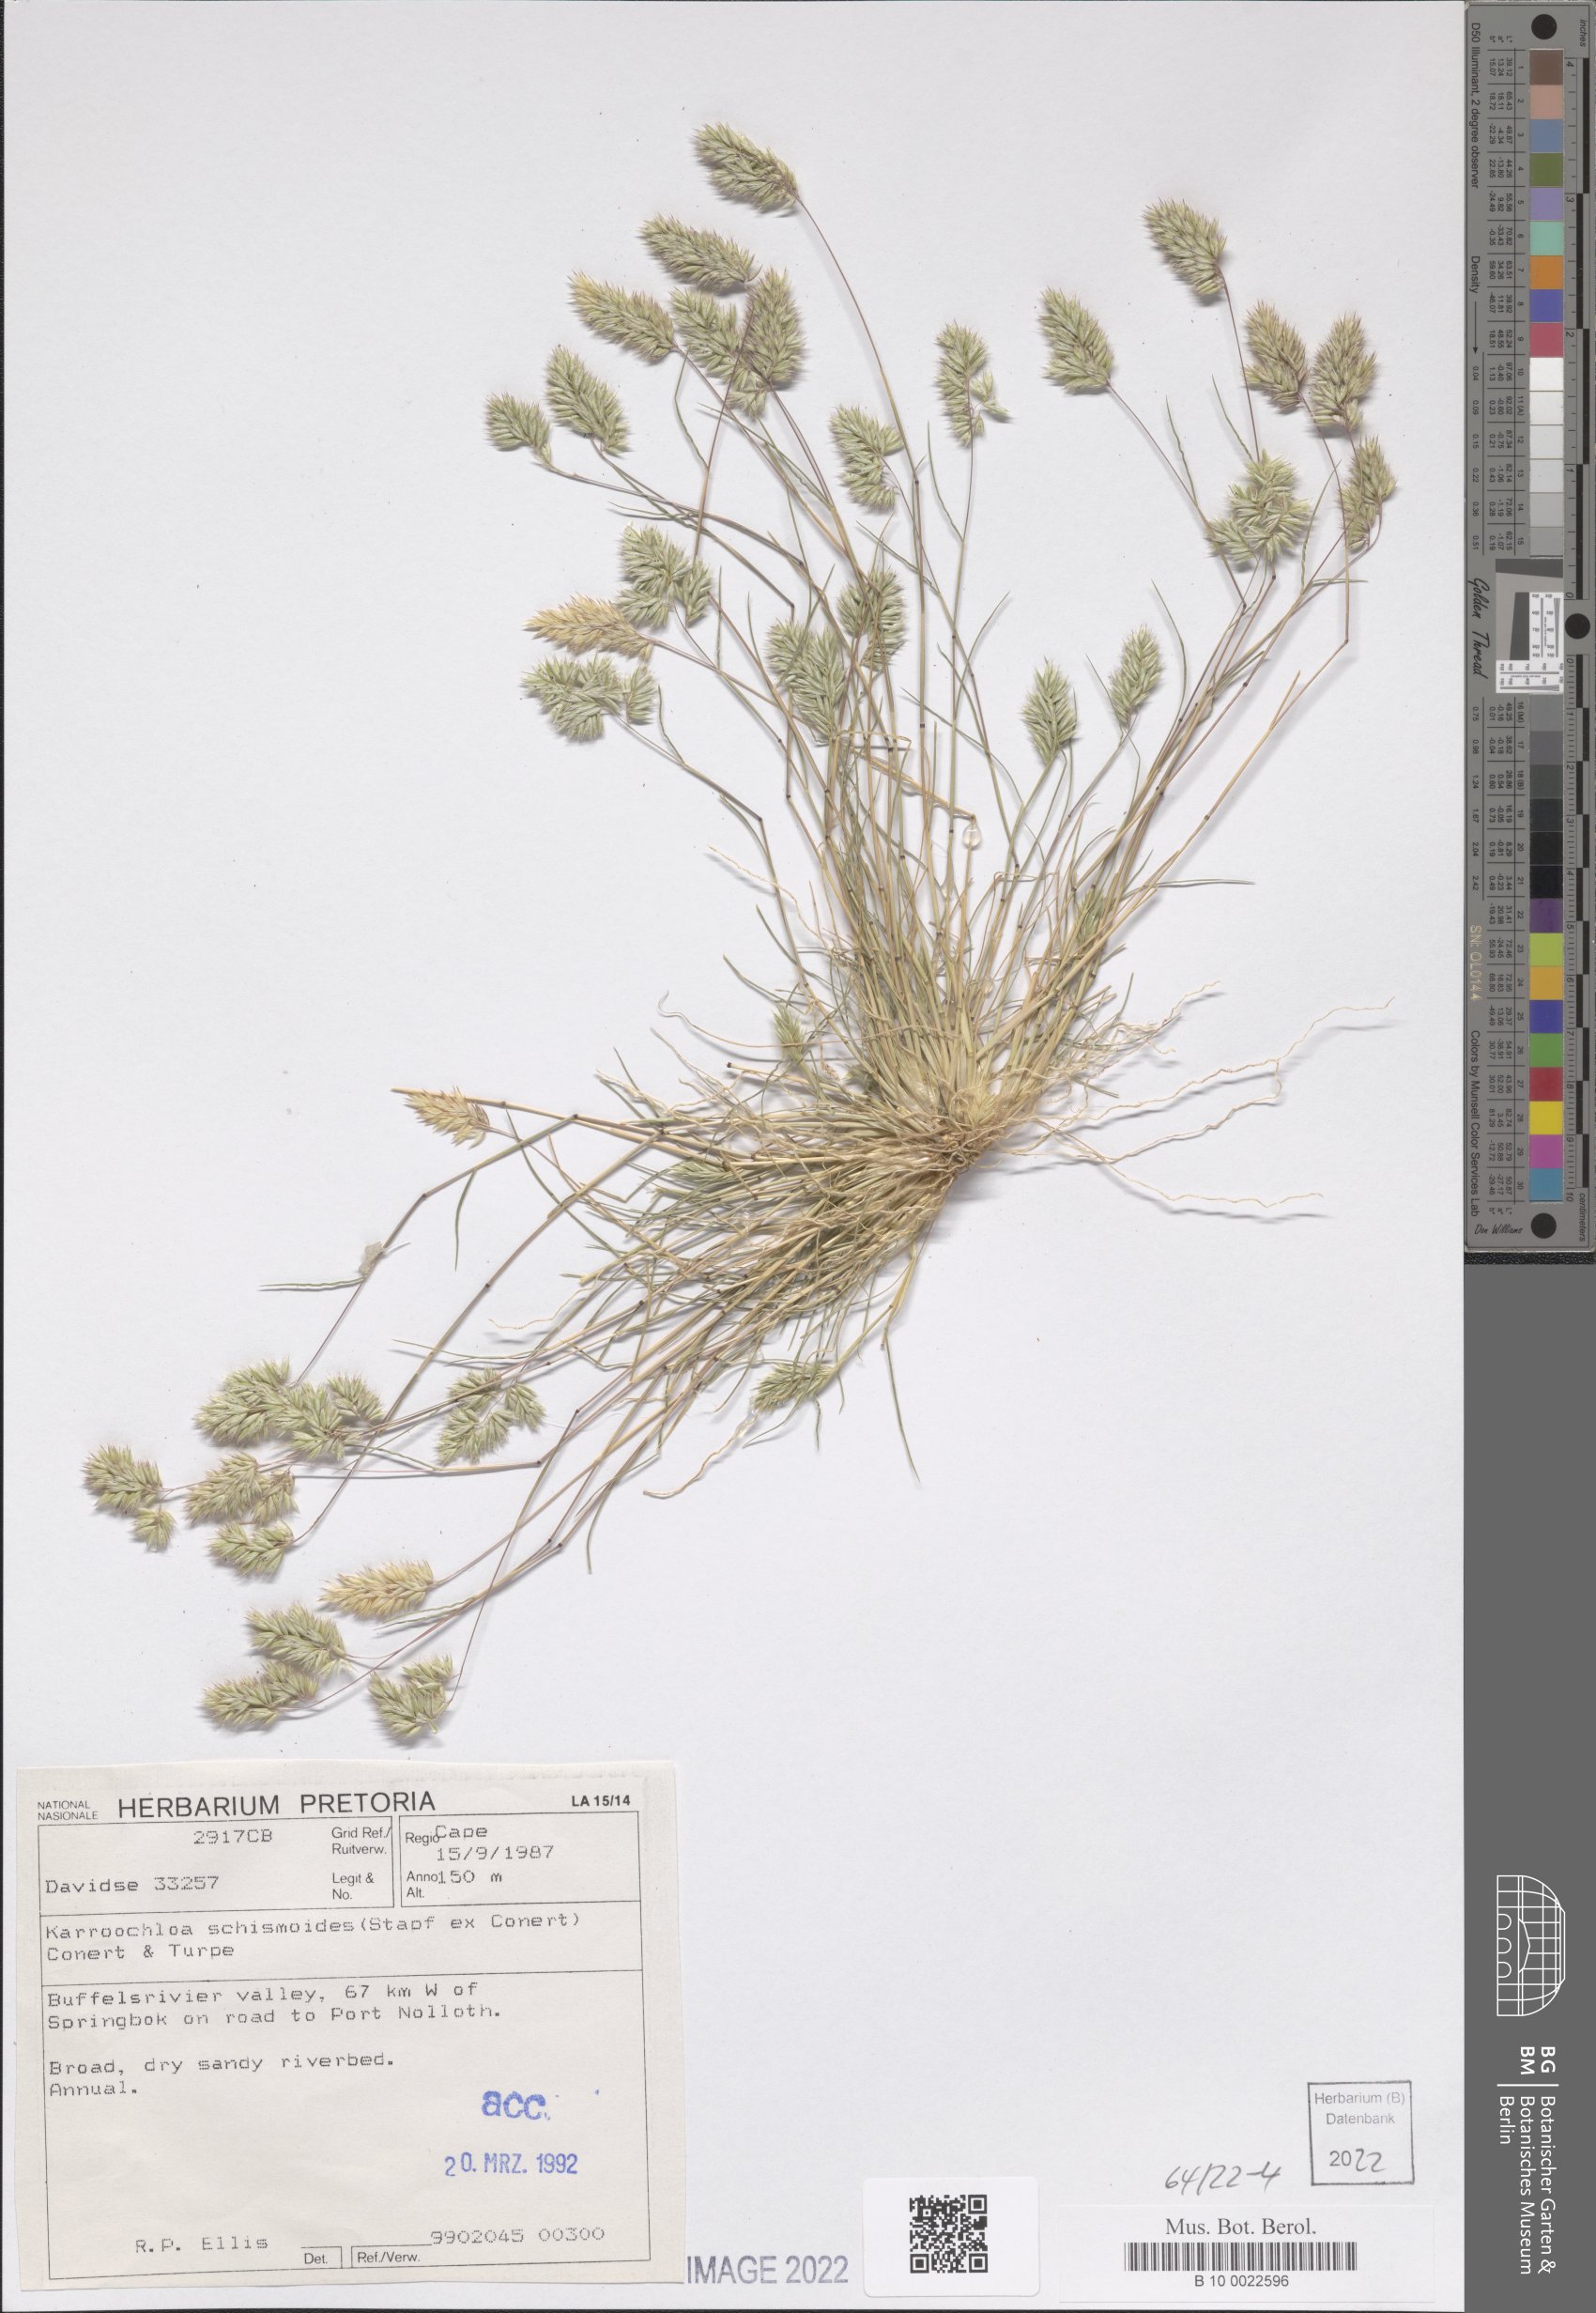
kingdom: Plantae
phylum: Tracheophyta
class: Liliopsida
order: Poales
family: Poaceae
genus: Schismus
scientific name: Schismus schismoides
